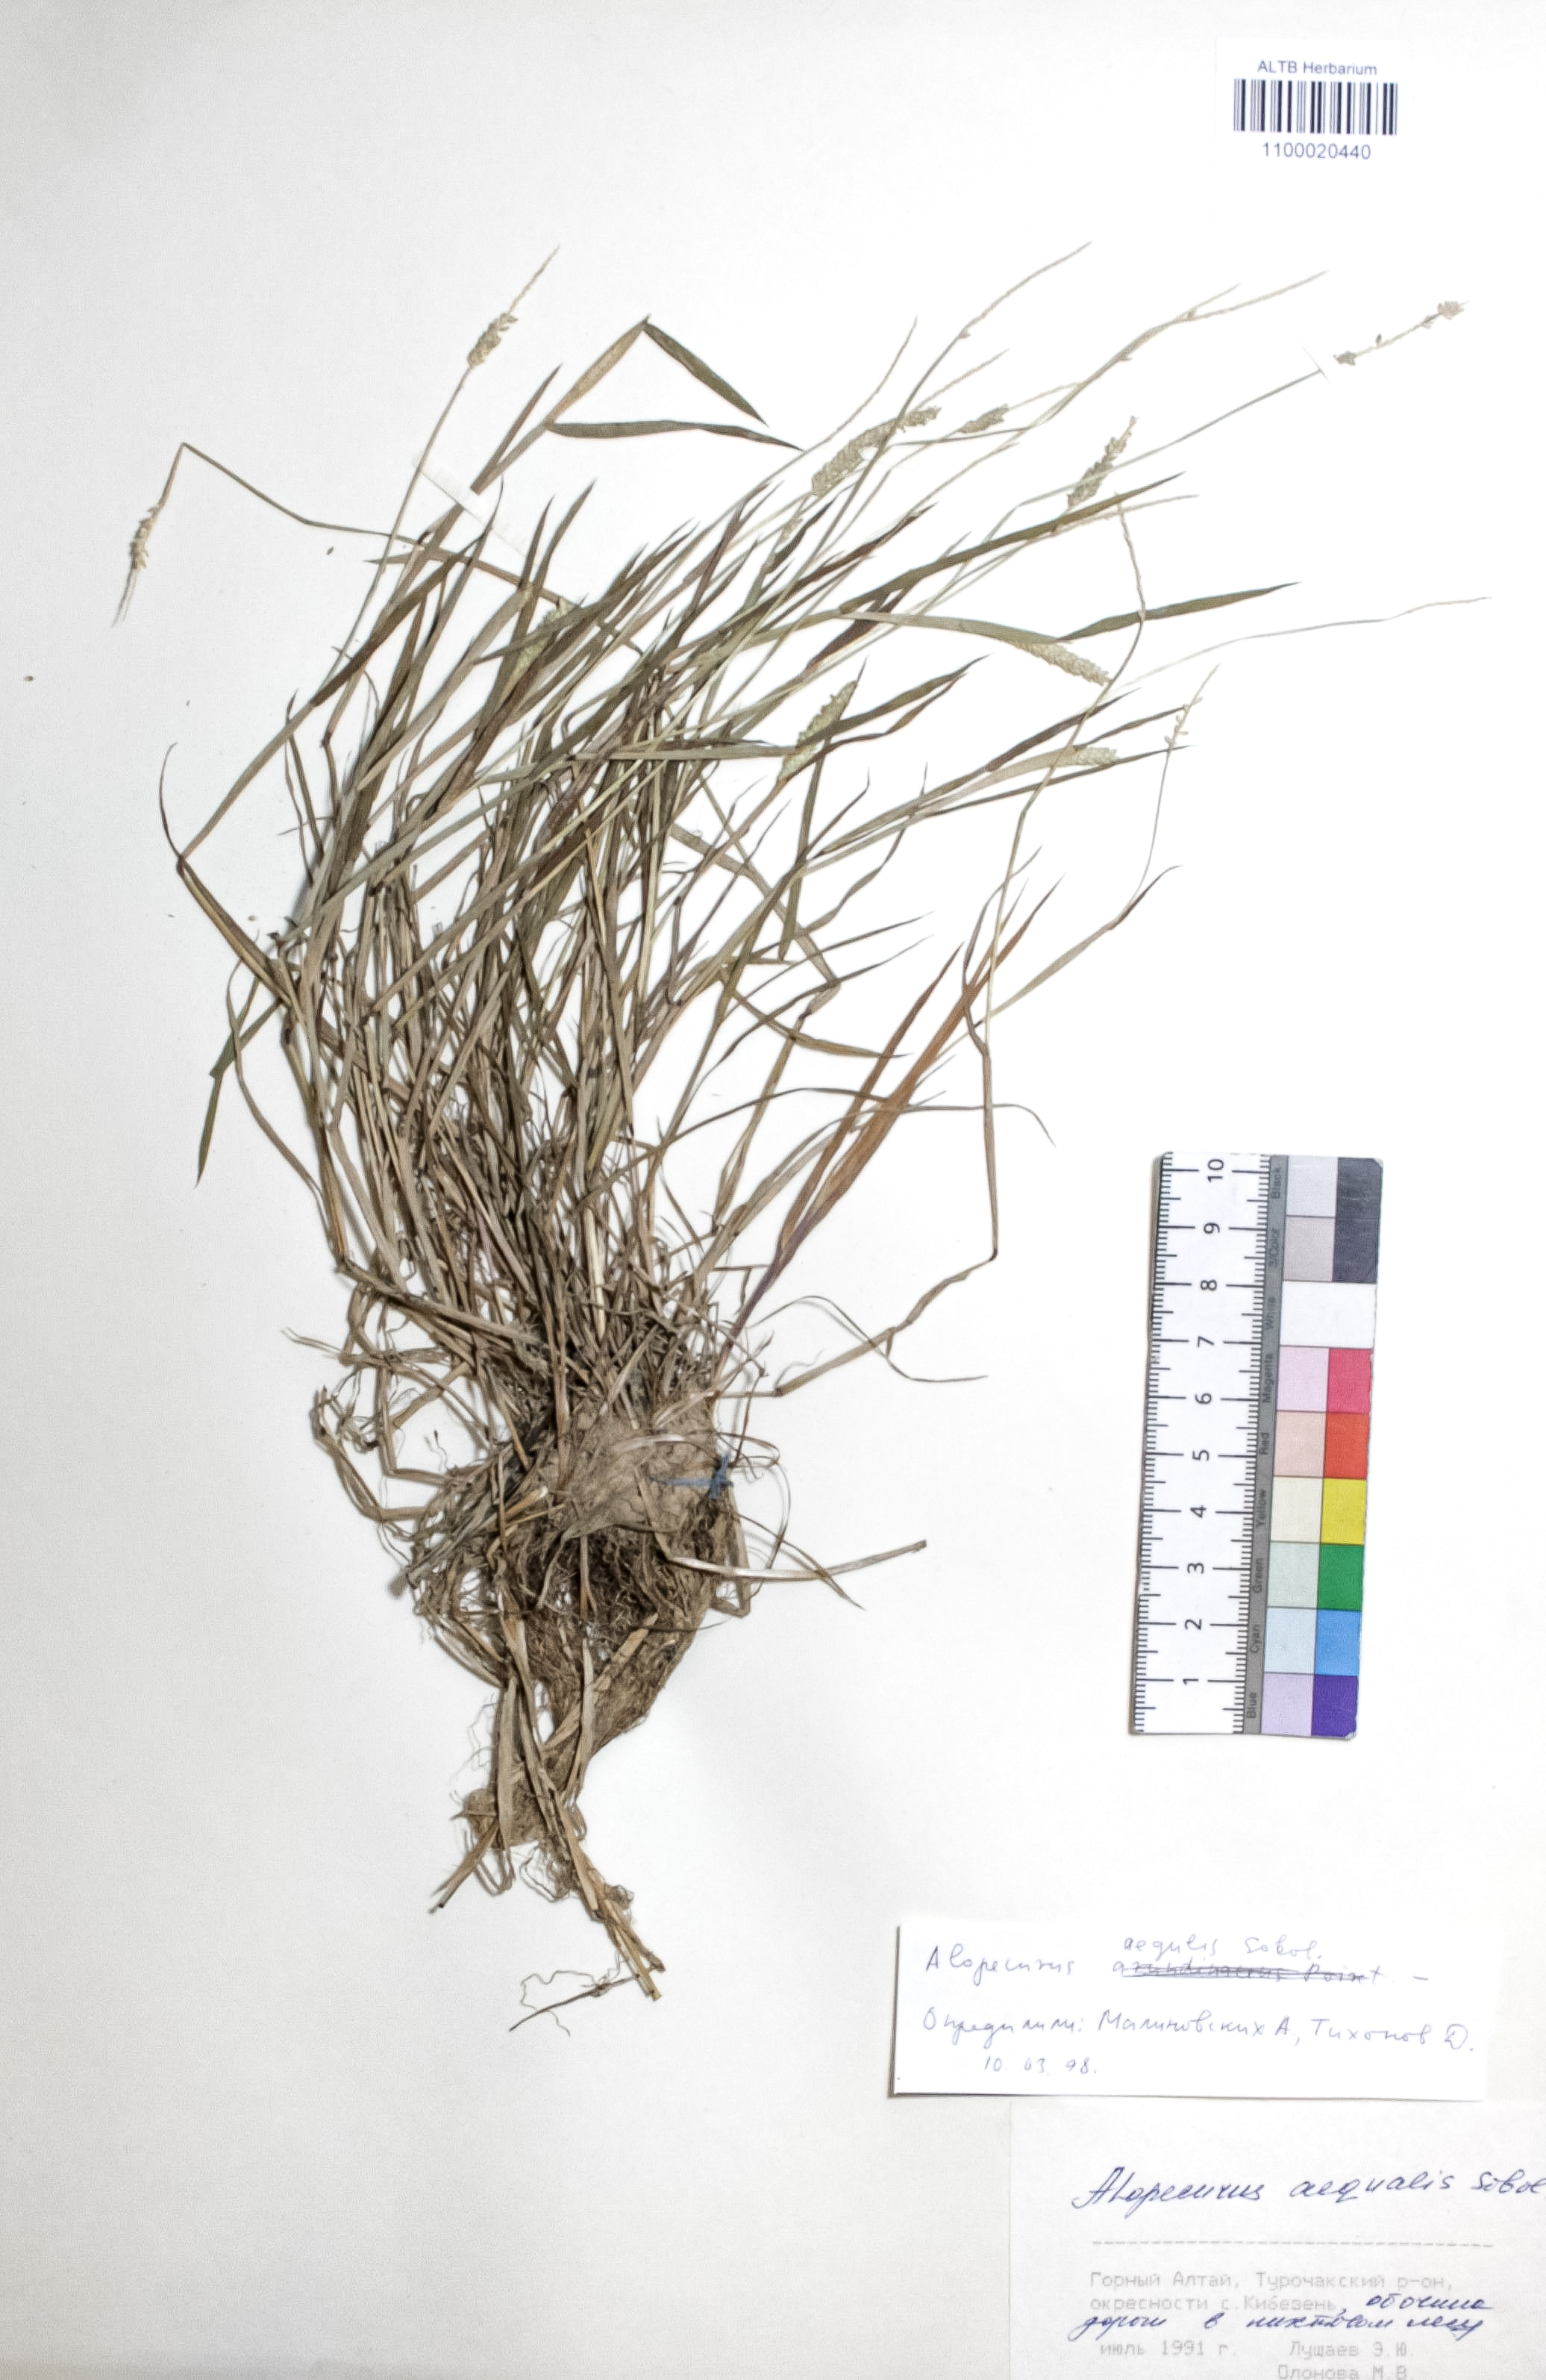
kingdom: Plantae
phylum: Tracheophyta
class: Liliopsida
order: Poales
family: Poaceae
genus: Alopecurus
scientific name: Alopecurus aequalis
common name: Orange foxtail
